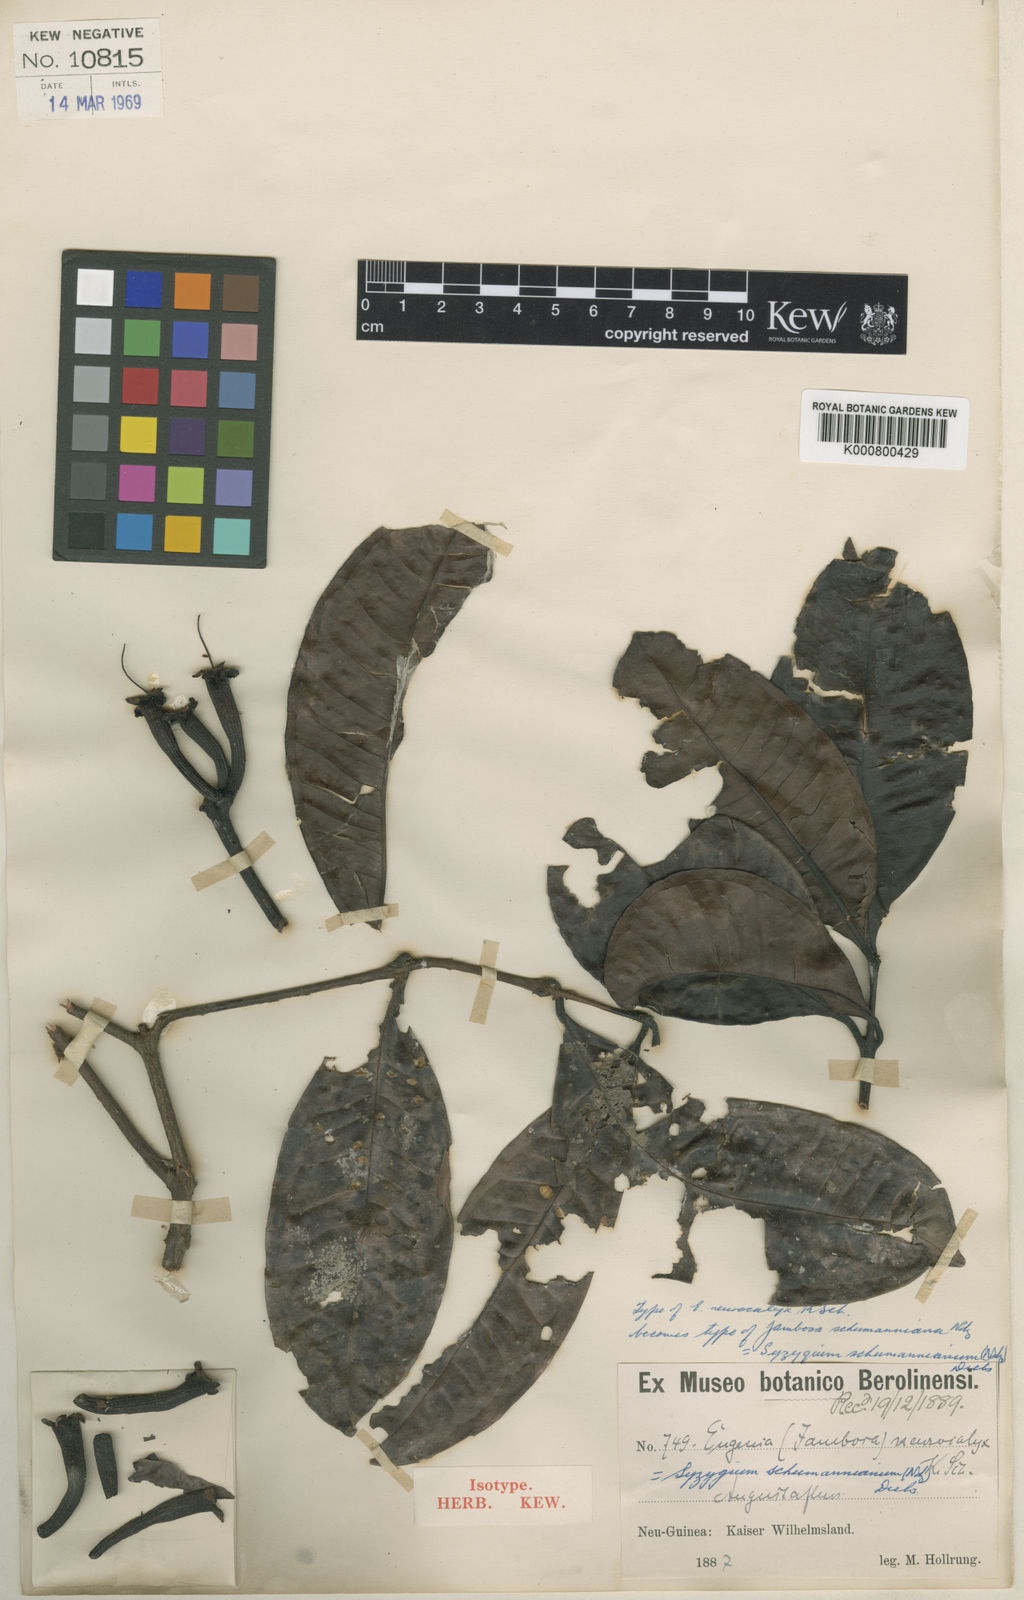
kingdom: Plantae
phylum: Tracheophyta
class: Magnoliopsida
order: Myrtales
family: Myrtaceae
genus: Syzygium
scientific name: Syzygium schumannianum
